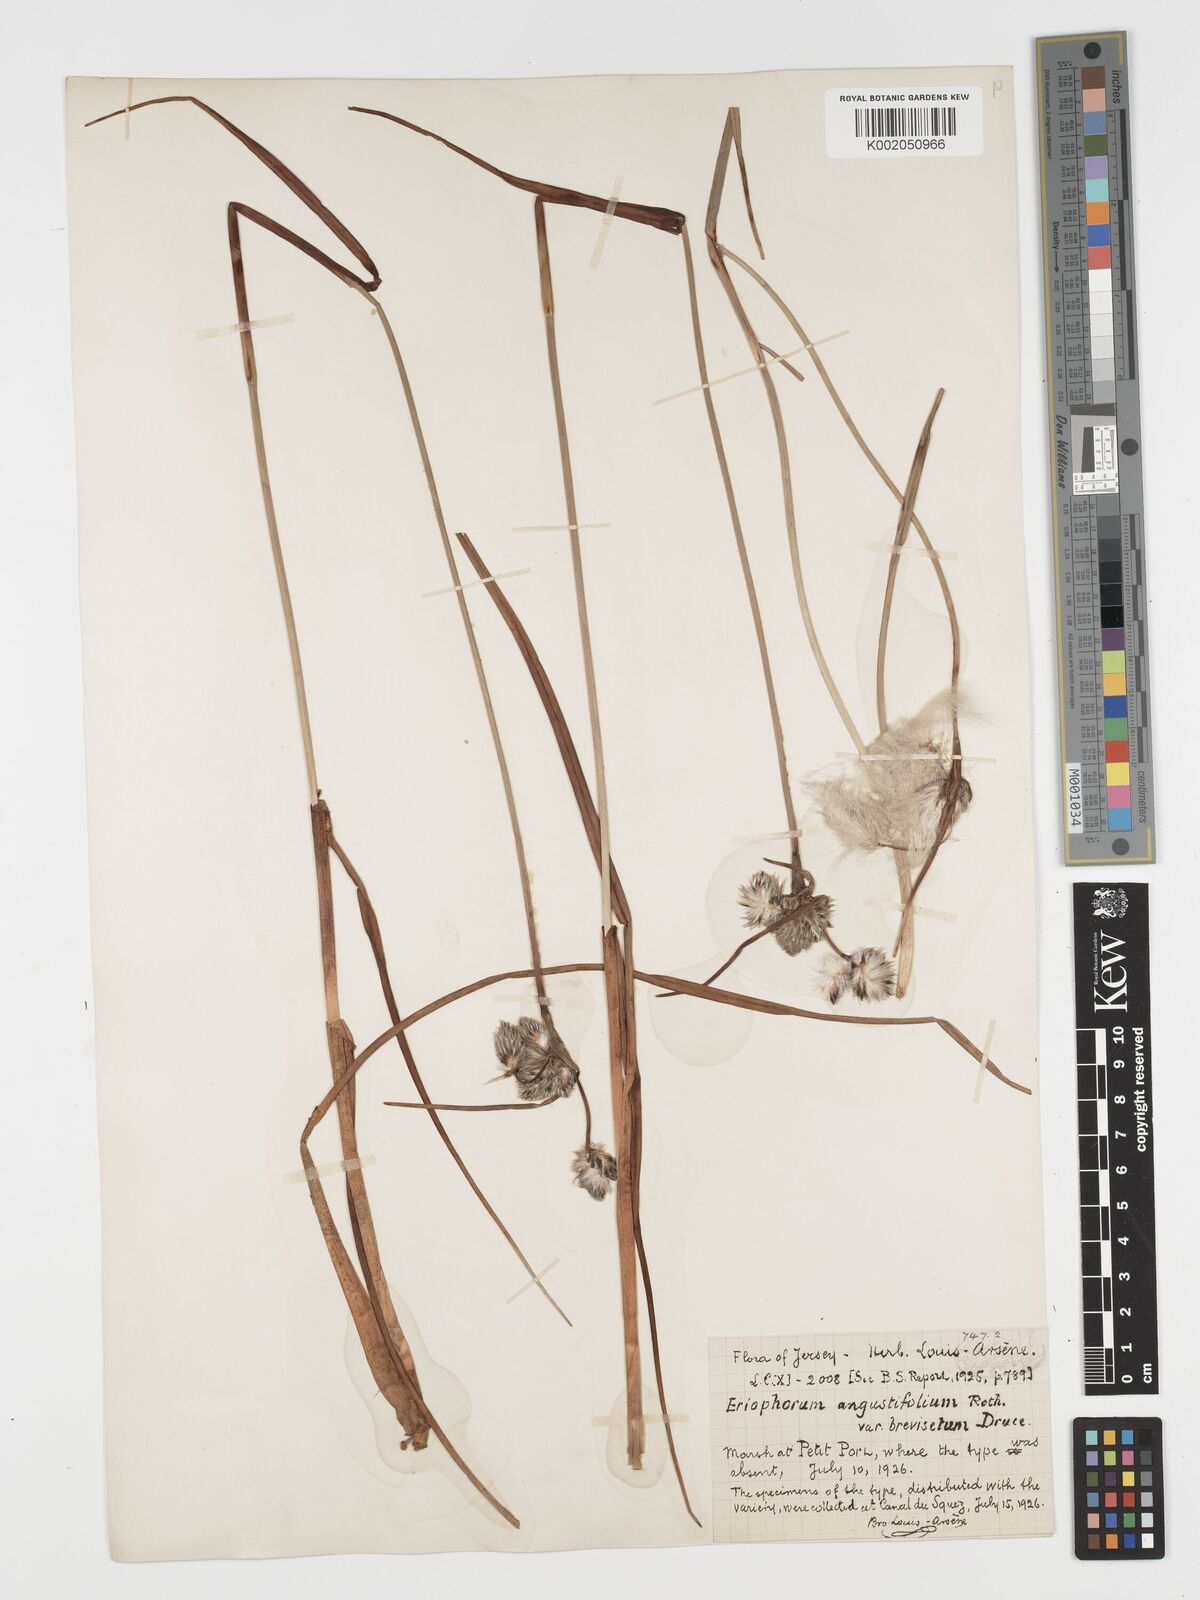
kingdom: Plantae
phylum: Tracheophyta
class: Liliopsida
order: Poales
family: Cyperaceae
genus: Eriophorum
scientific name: Eriophorum angustifolium
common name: Common cottongrass
